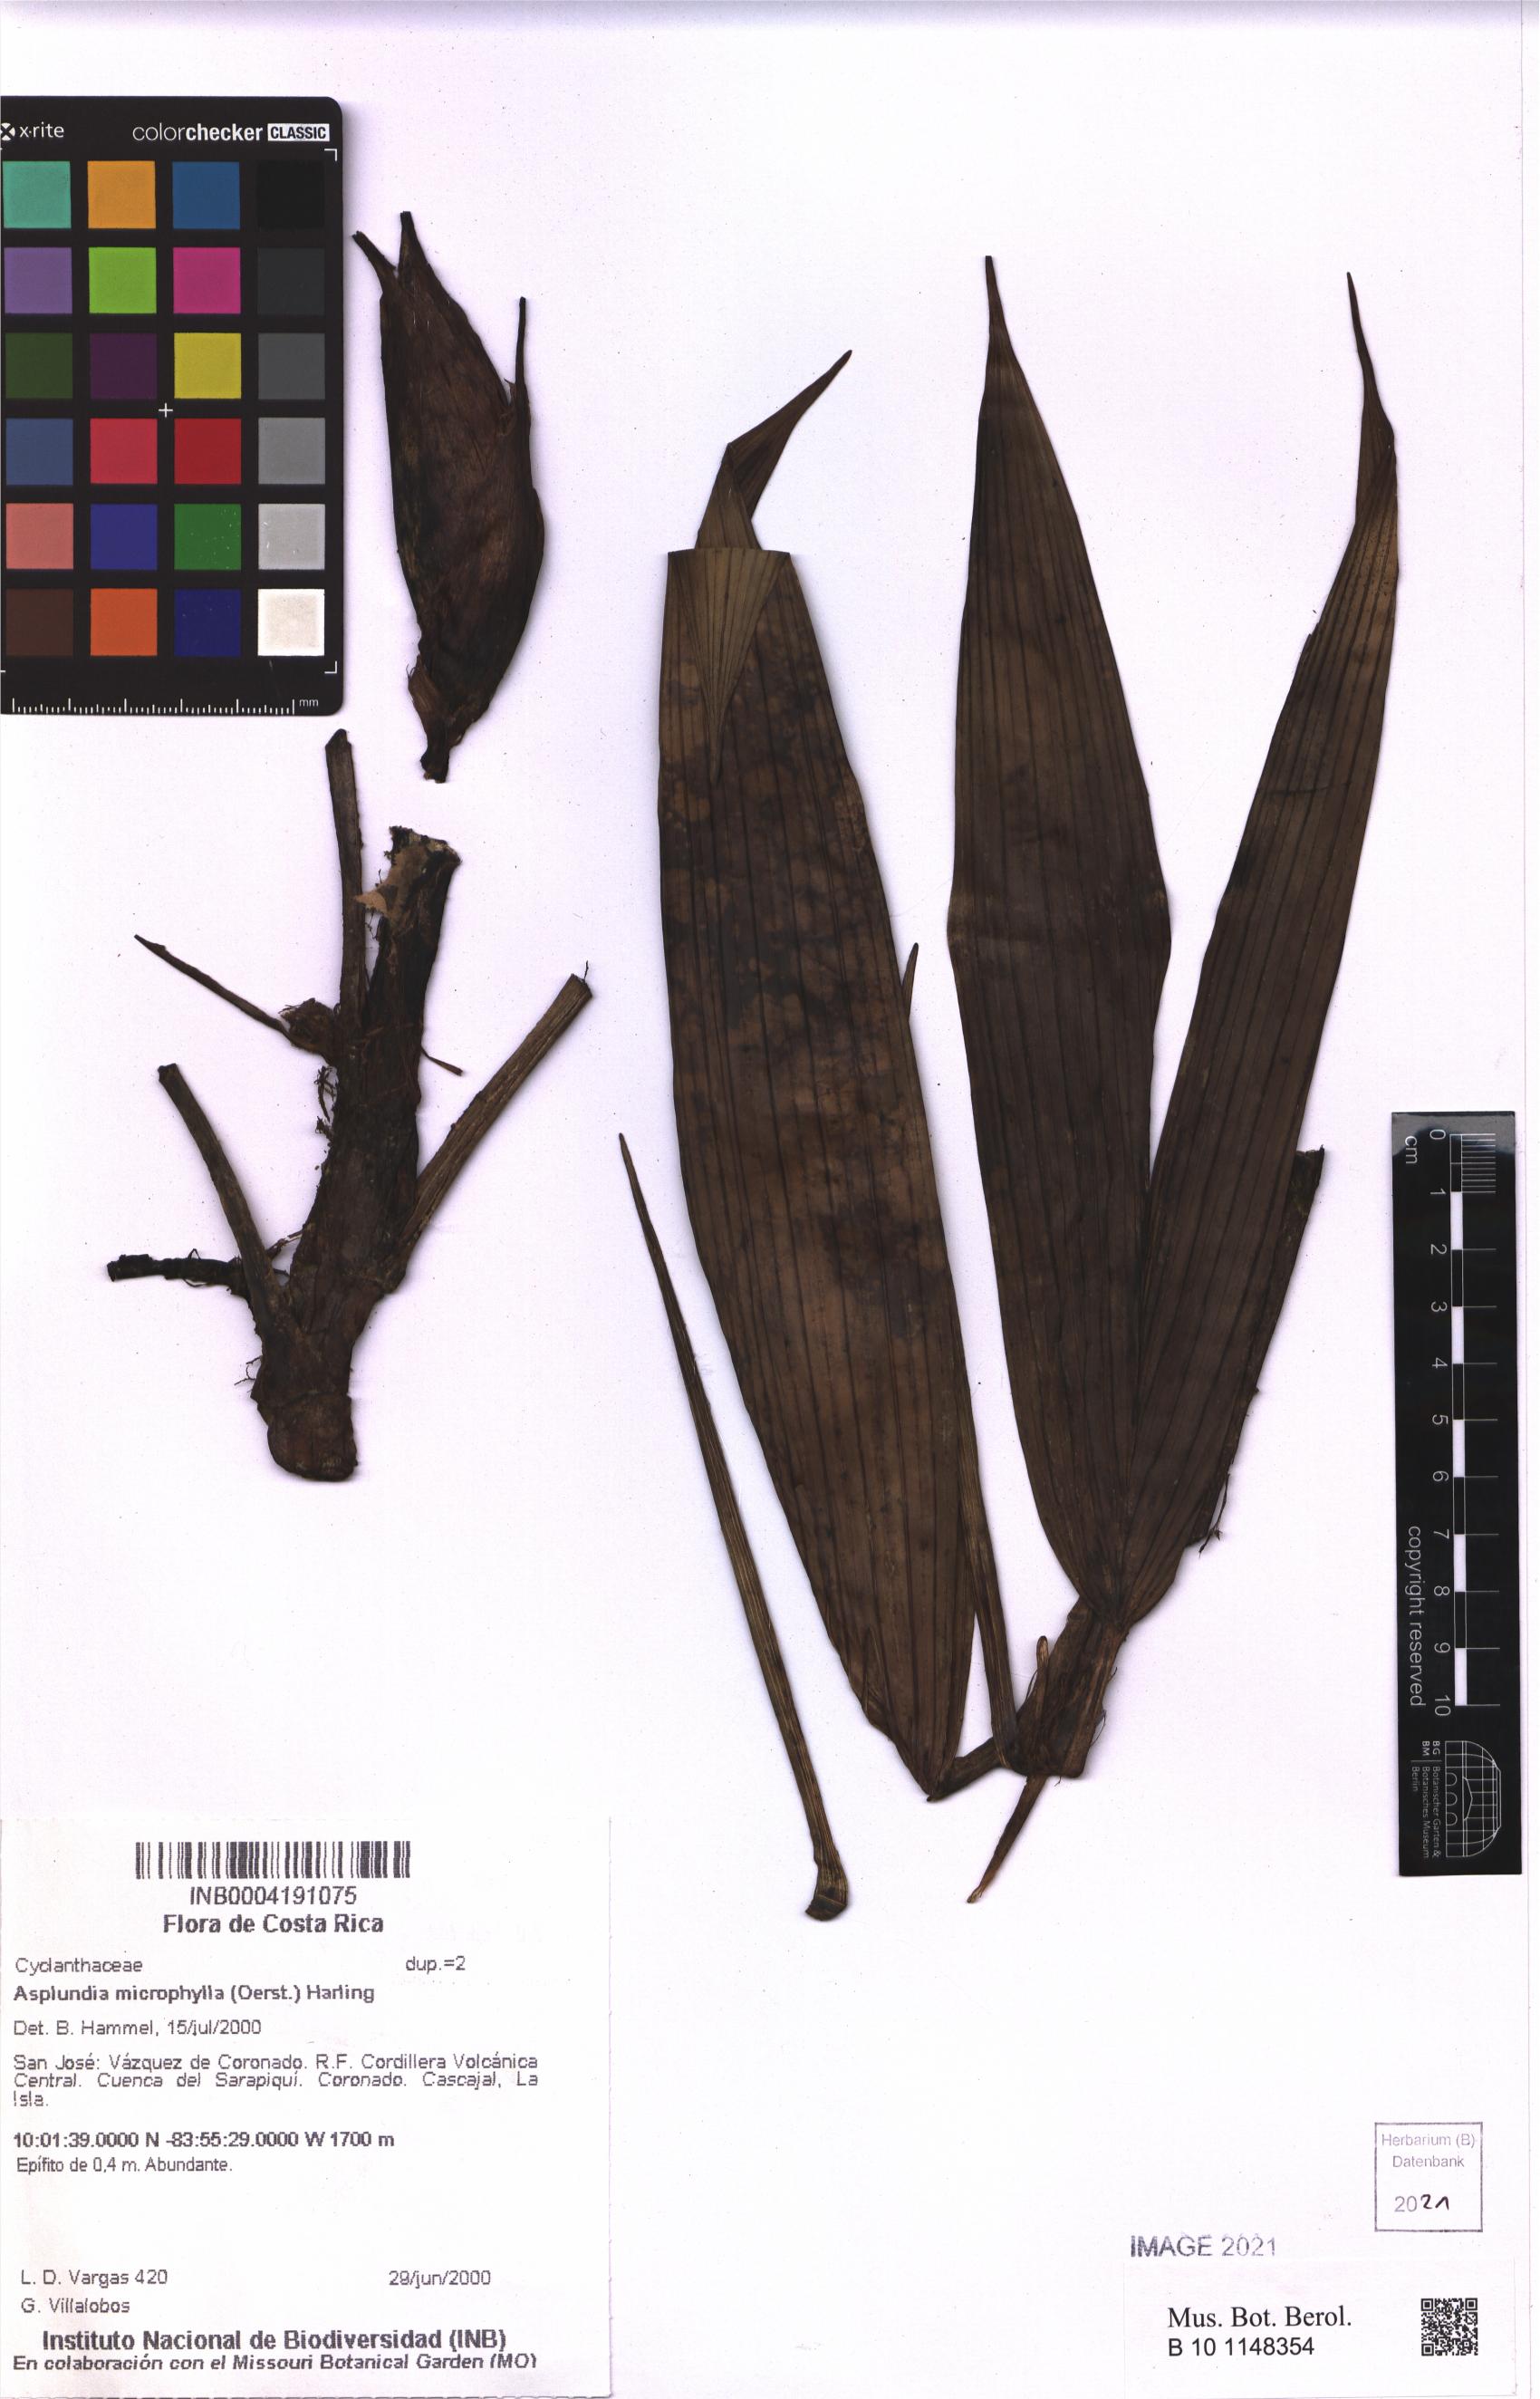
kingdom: Plantae
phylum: Tracheophyta
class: Liliopsida
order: Pandanales
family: Cyclanthaceae
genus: Asplundia
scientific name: Asplundia microphylla
